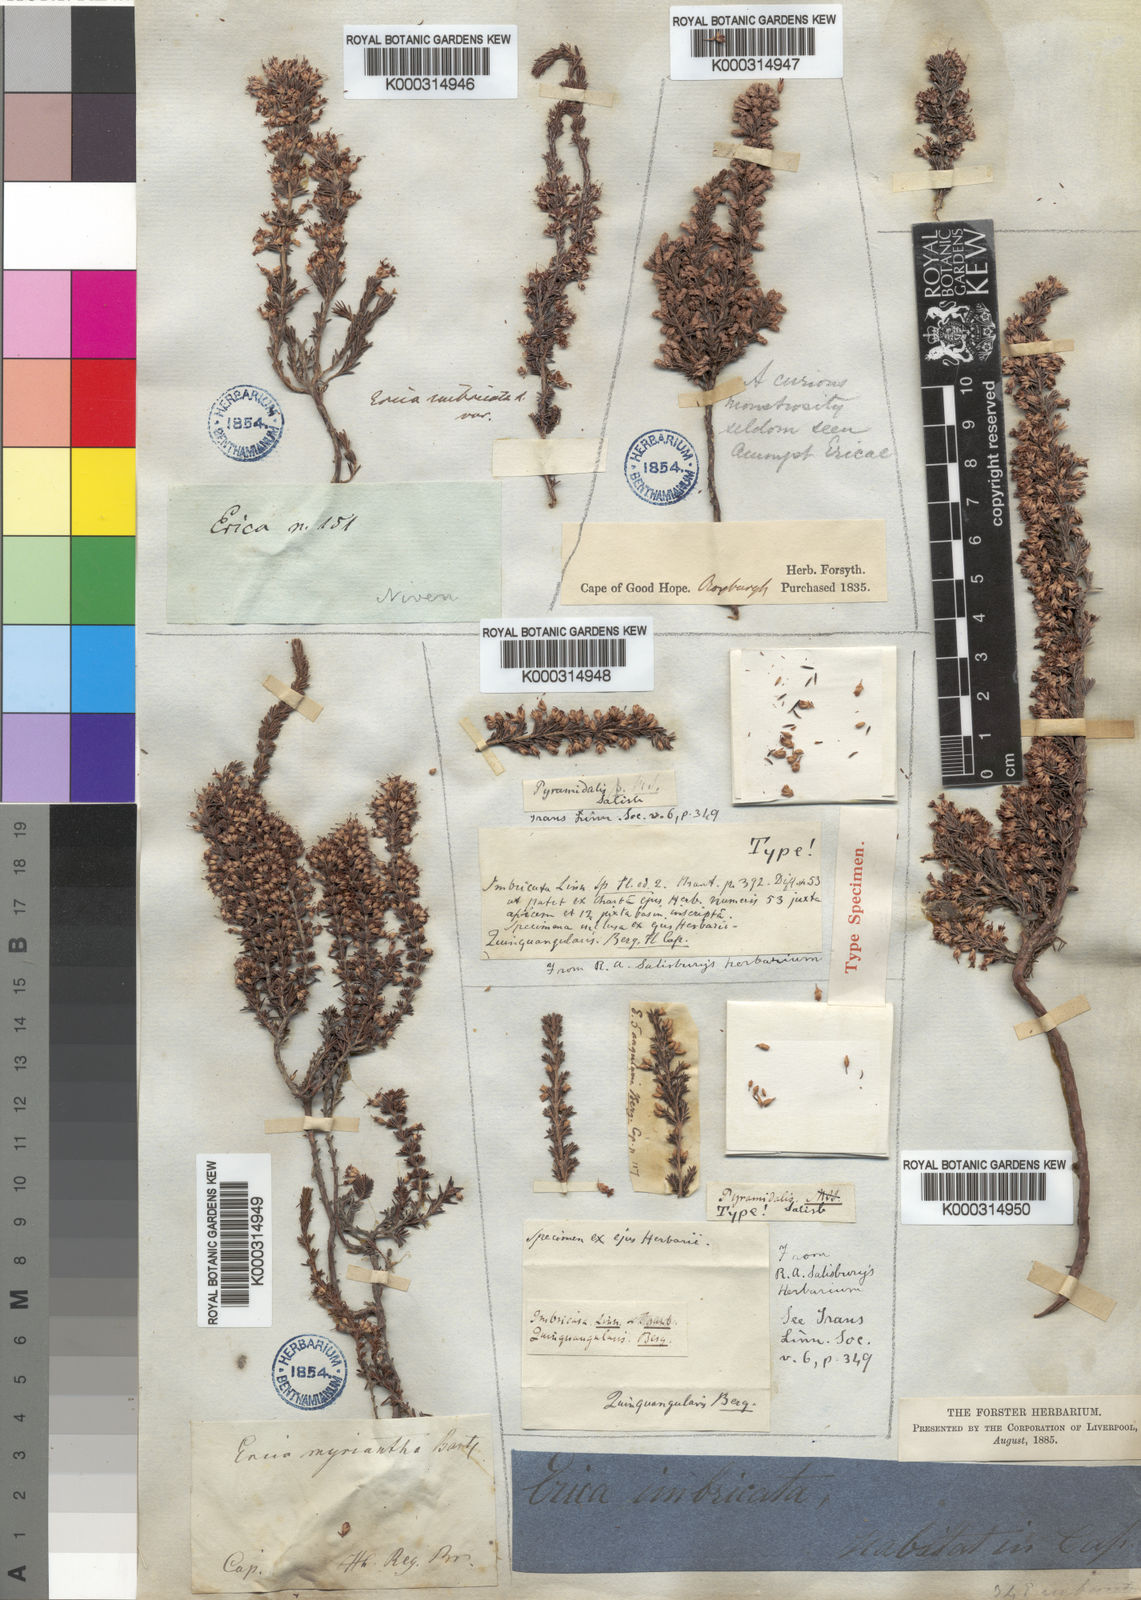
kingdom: Plantae
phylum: Tracheophyta
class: Magnoliopsida
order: Ericales
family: Ericaceae
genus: Erica
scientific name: Erica imbricata
